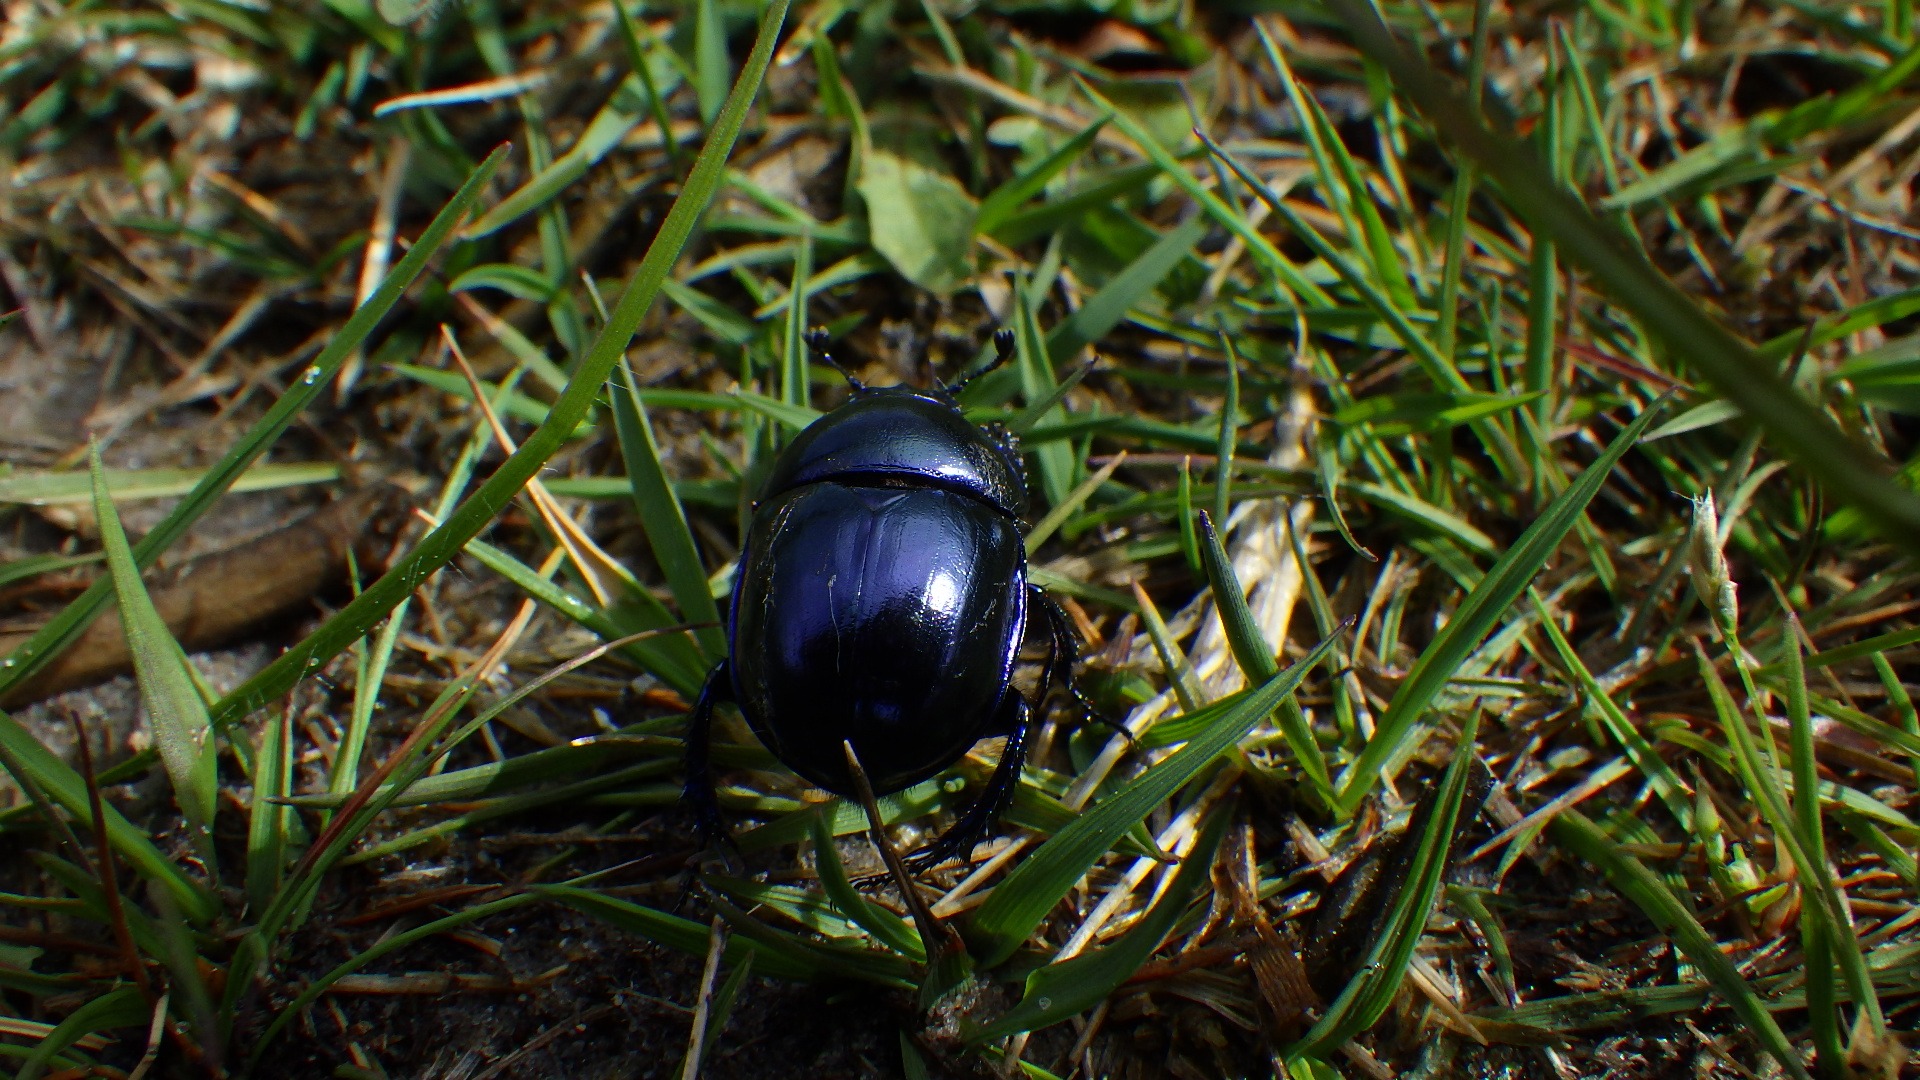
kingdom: Animalia
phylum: Arthropoda
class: Insecta
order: Coleoptera
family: Geotrupidae
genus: Trypocopris
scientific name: Trypocopris vernalis
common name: Glat skarnbasse
